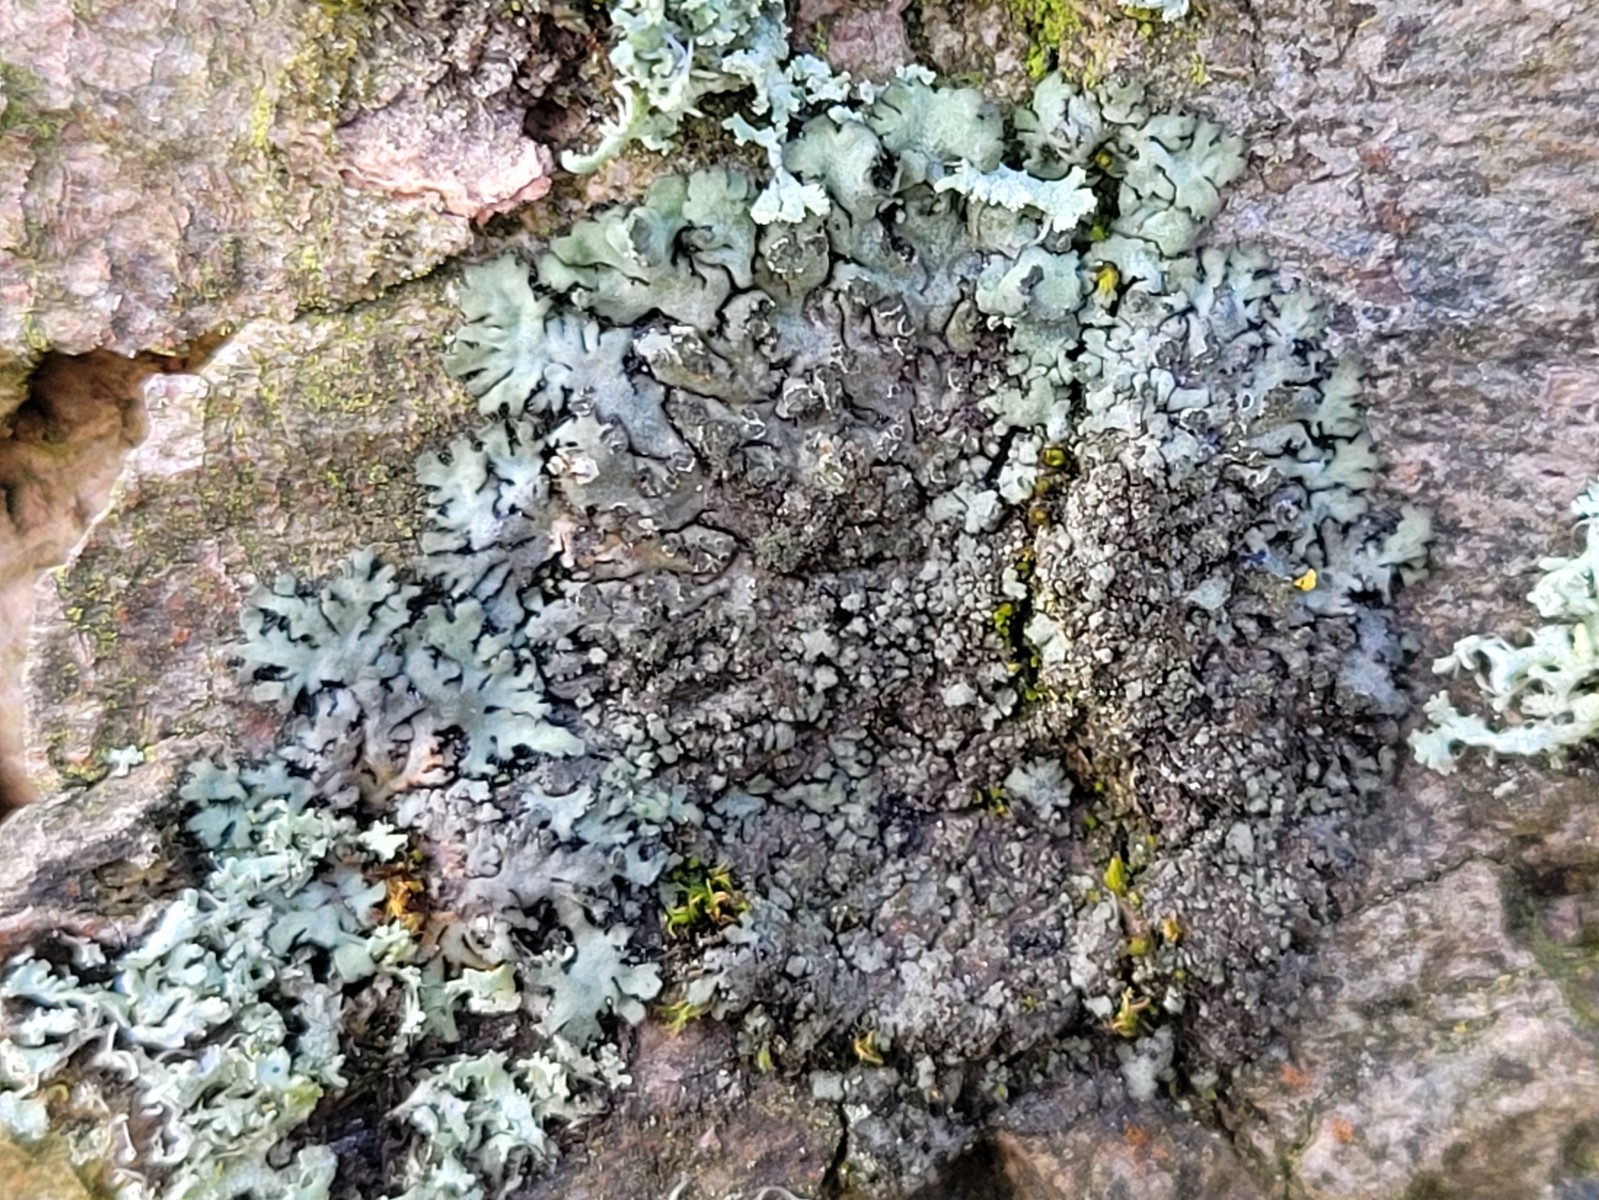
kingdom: Fungi
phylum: Ascomycota
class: Lecanoromycetes
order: Caliciales
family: Physciaceae
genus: Phaeophyscia
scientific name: Phaeophyscia orbicularis
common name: grågrøn rosetlav
